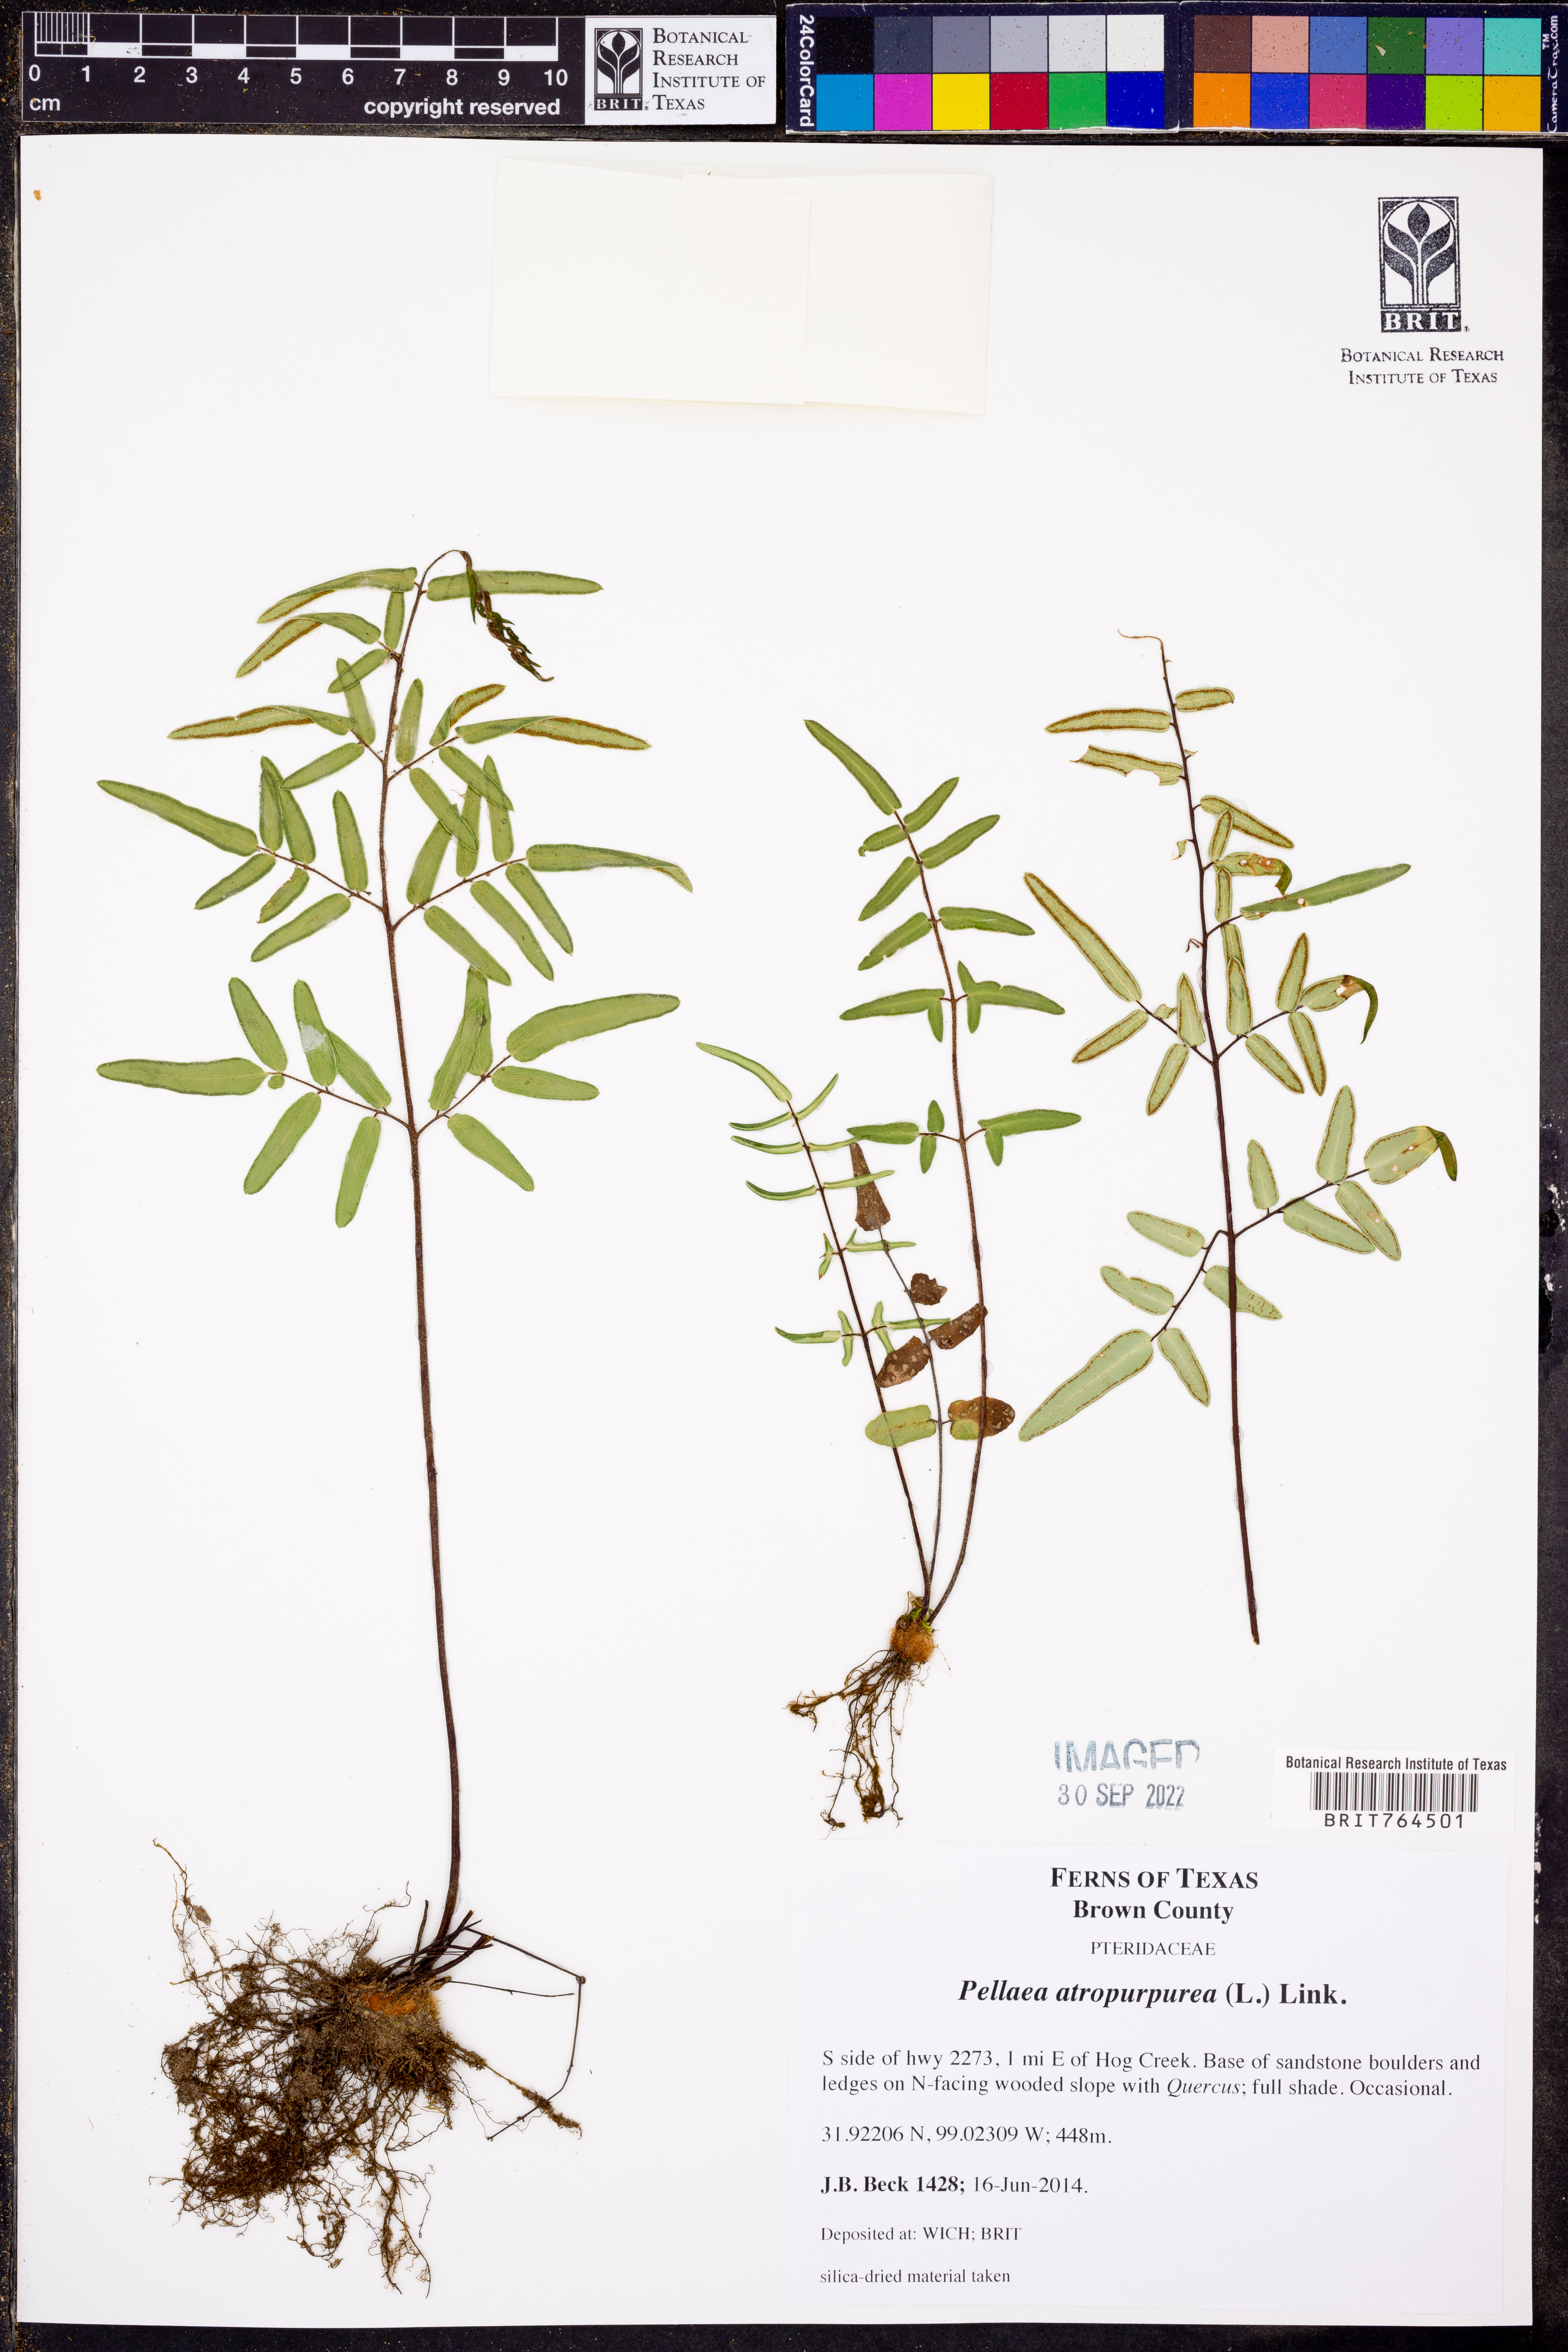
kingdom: Plantae
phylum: Tracheophyta
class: Polypodiopsida
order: Polypodiales
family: Pteridaceae
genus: Pellaea
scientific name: Pellaea atropurpurea
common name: Hairy cliffbrake
